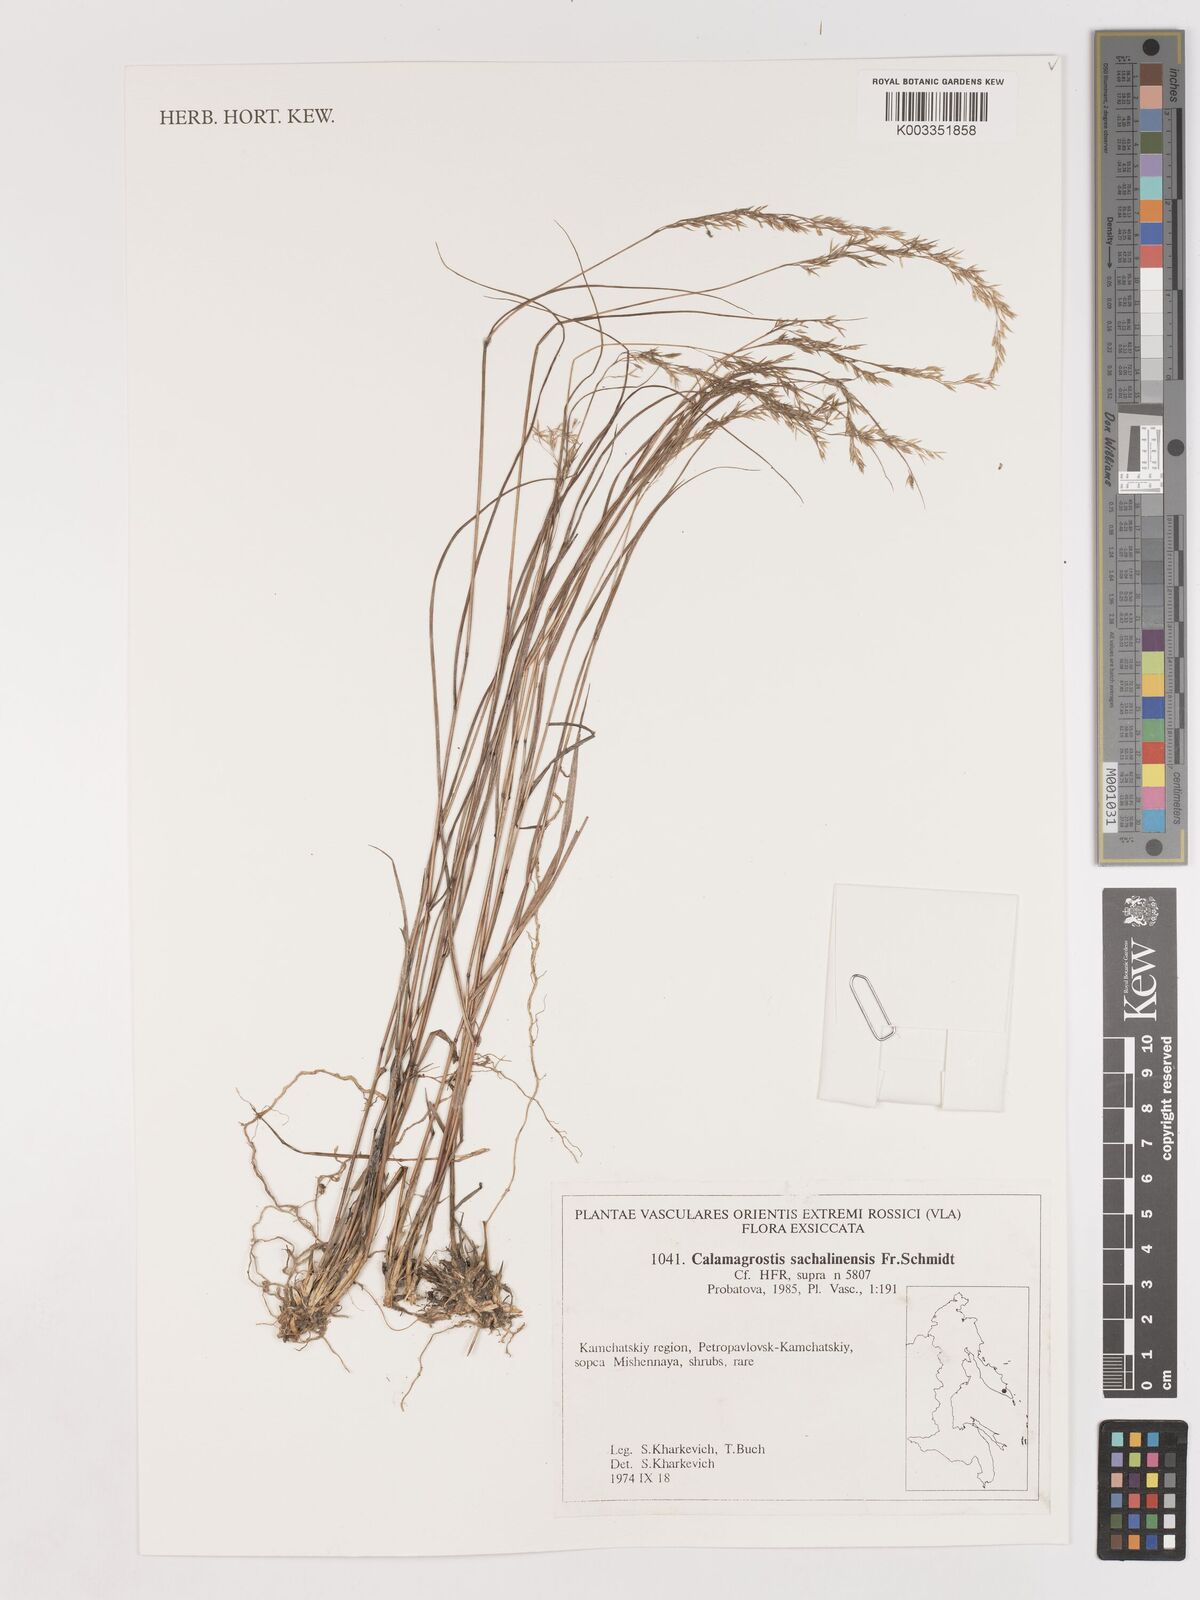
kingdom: Plantae
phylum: Tracheophyta
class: Liliopsida
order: Poales
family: Poaceae
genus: Calamagrostis
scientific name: Calamagrostis sachalinensis
